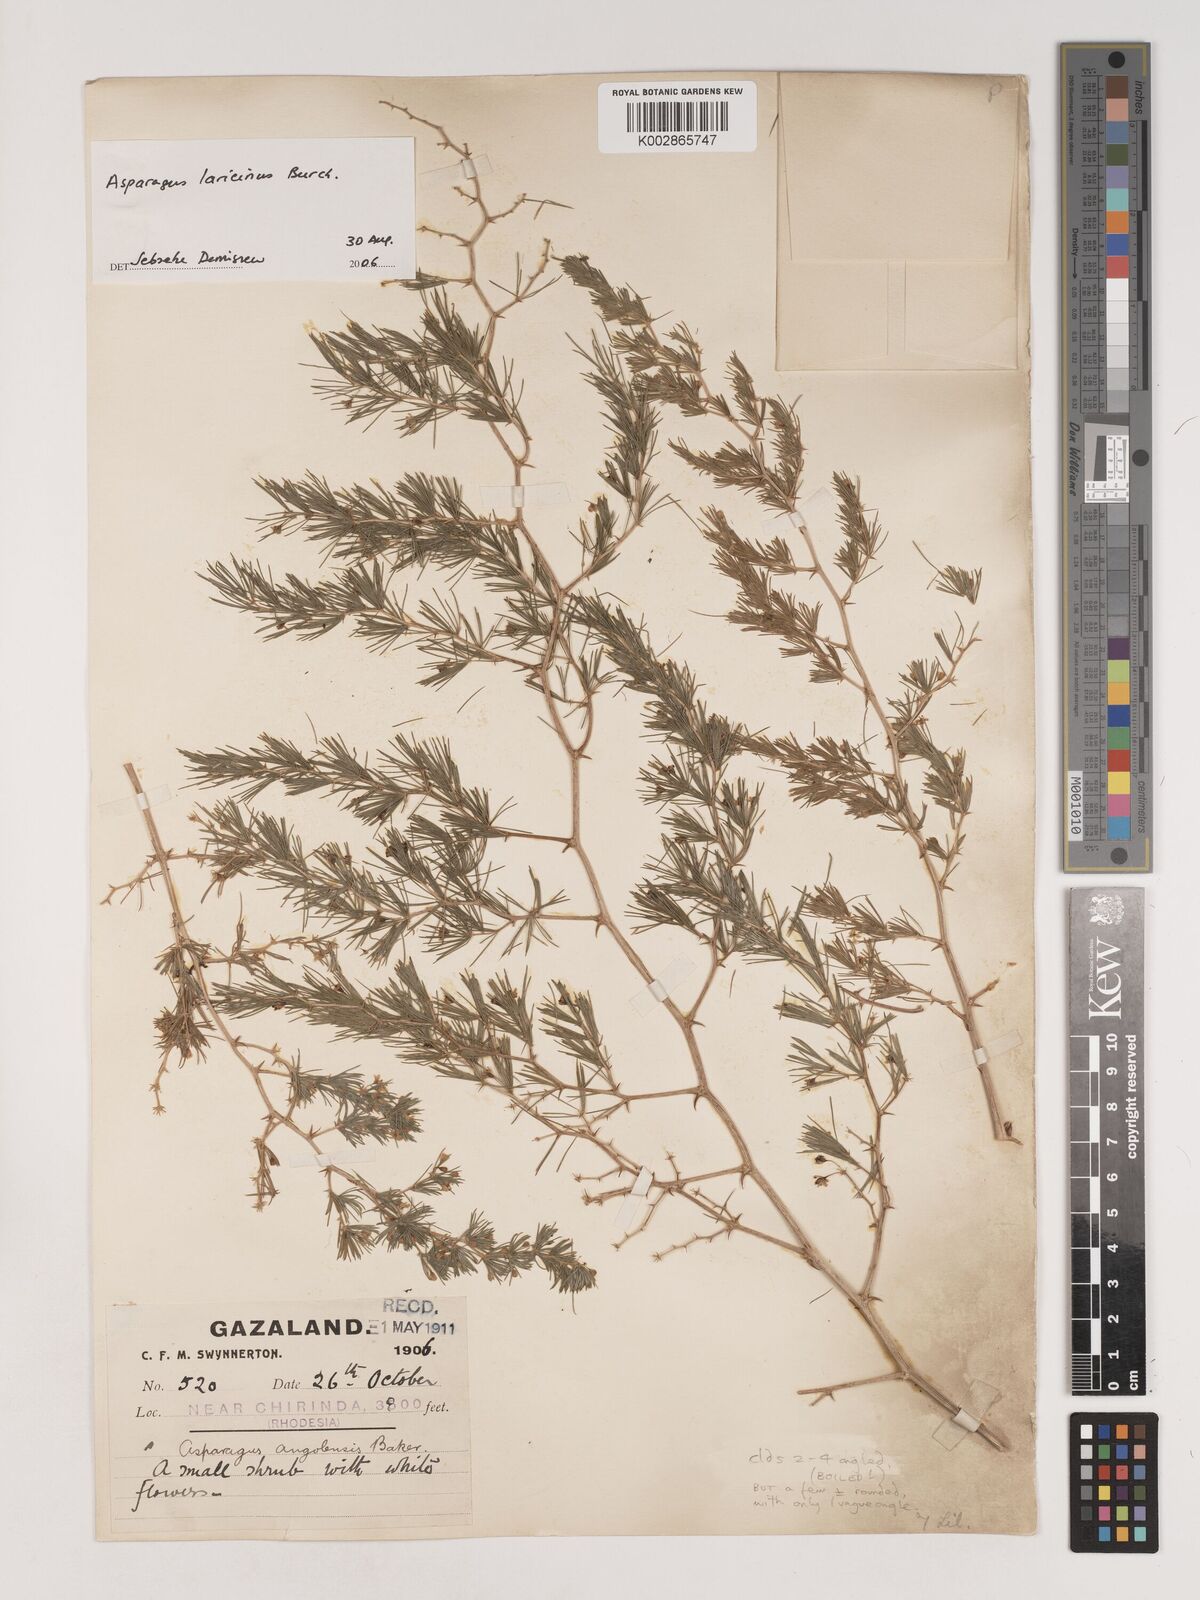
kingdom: Plantae
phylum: Tracheophyta
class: Liliopsida
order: Asparagales
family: Asparagaceae
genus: Asparagus
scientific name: Asparagus laricinus
